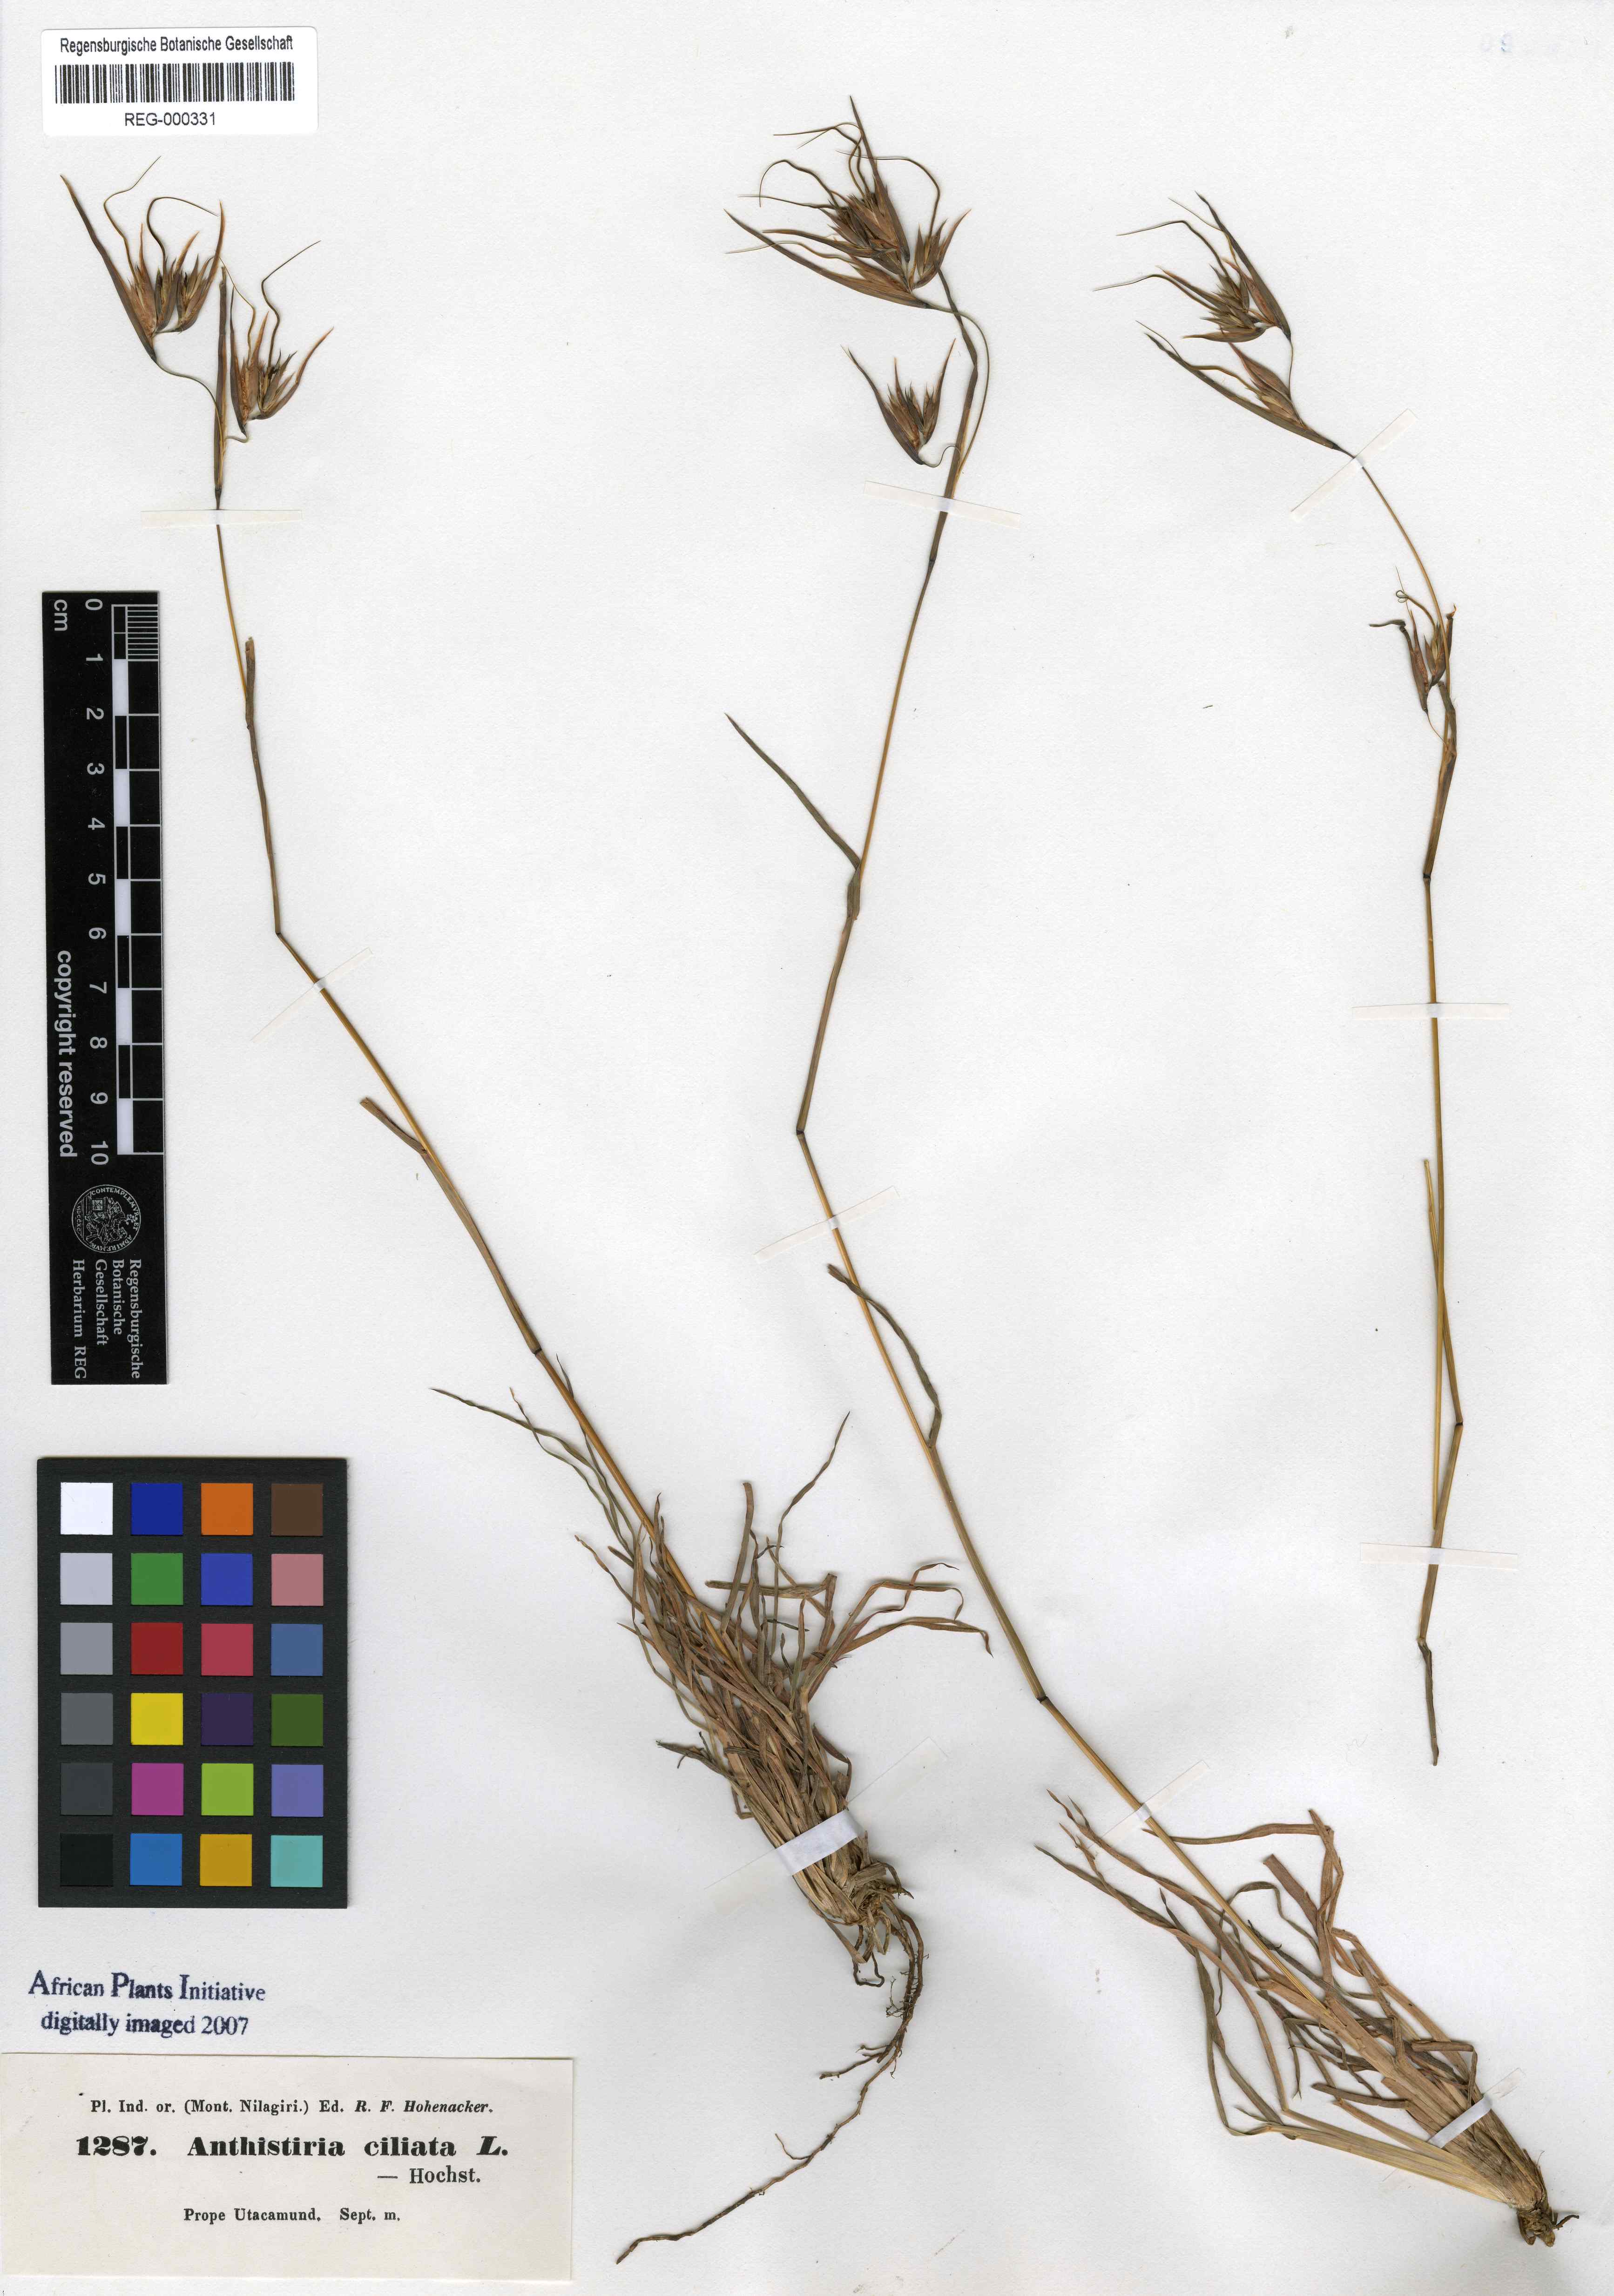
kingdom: Plantae
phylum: Tracheophyta
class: Liliopsida
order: Poales
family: Poaceae
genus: Themeda
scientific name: Themeda quadrivalvis
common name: Kangaroo grass
